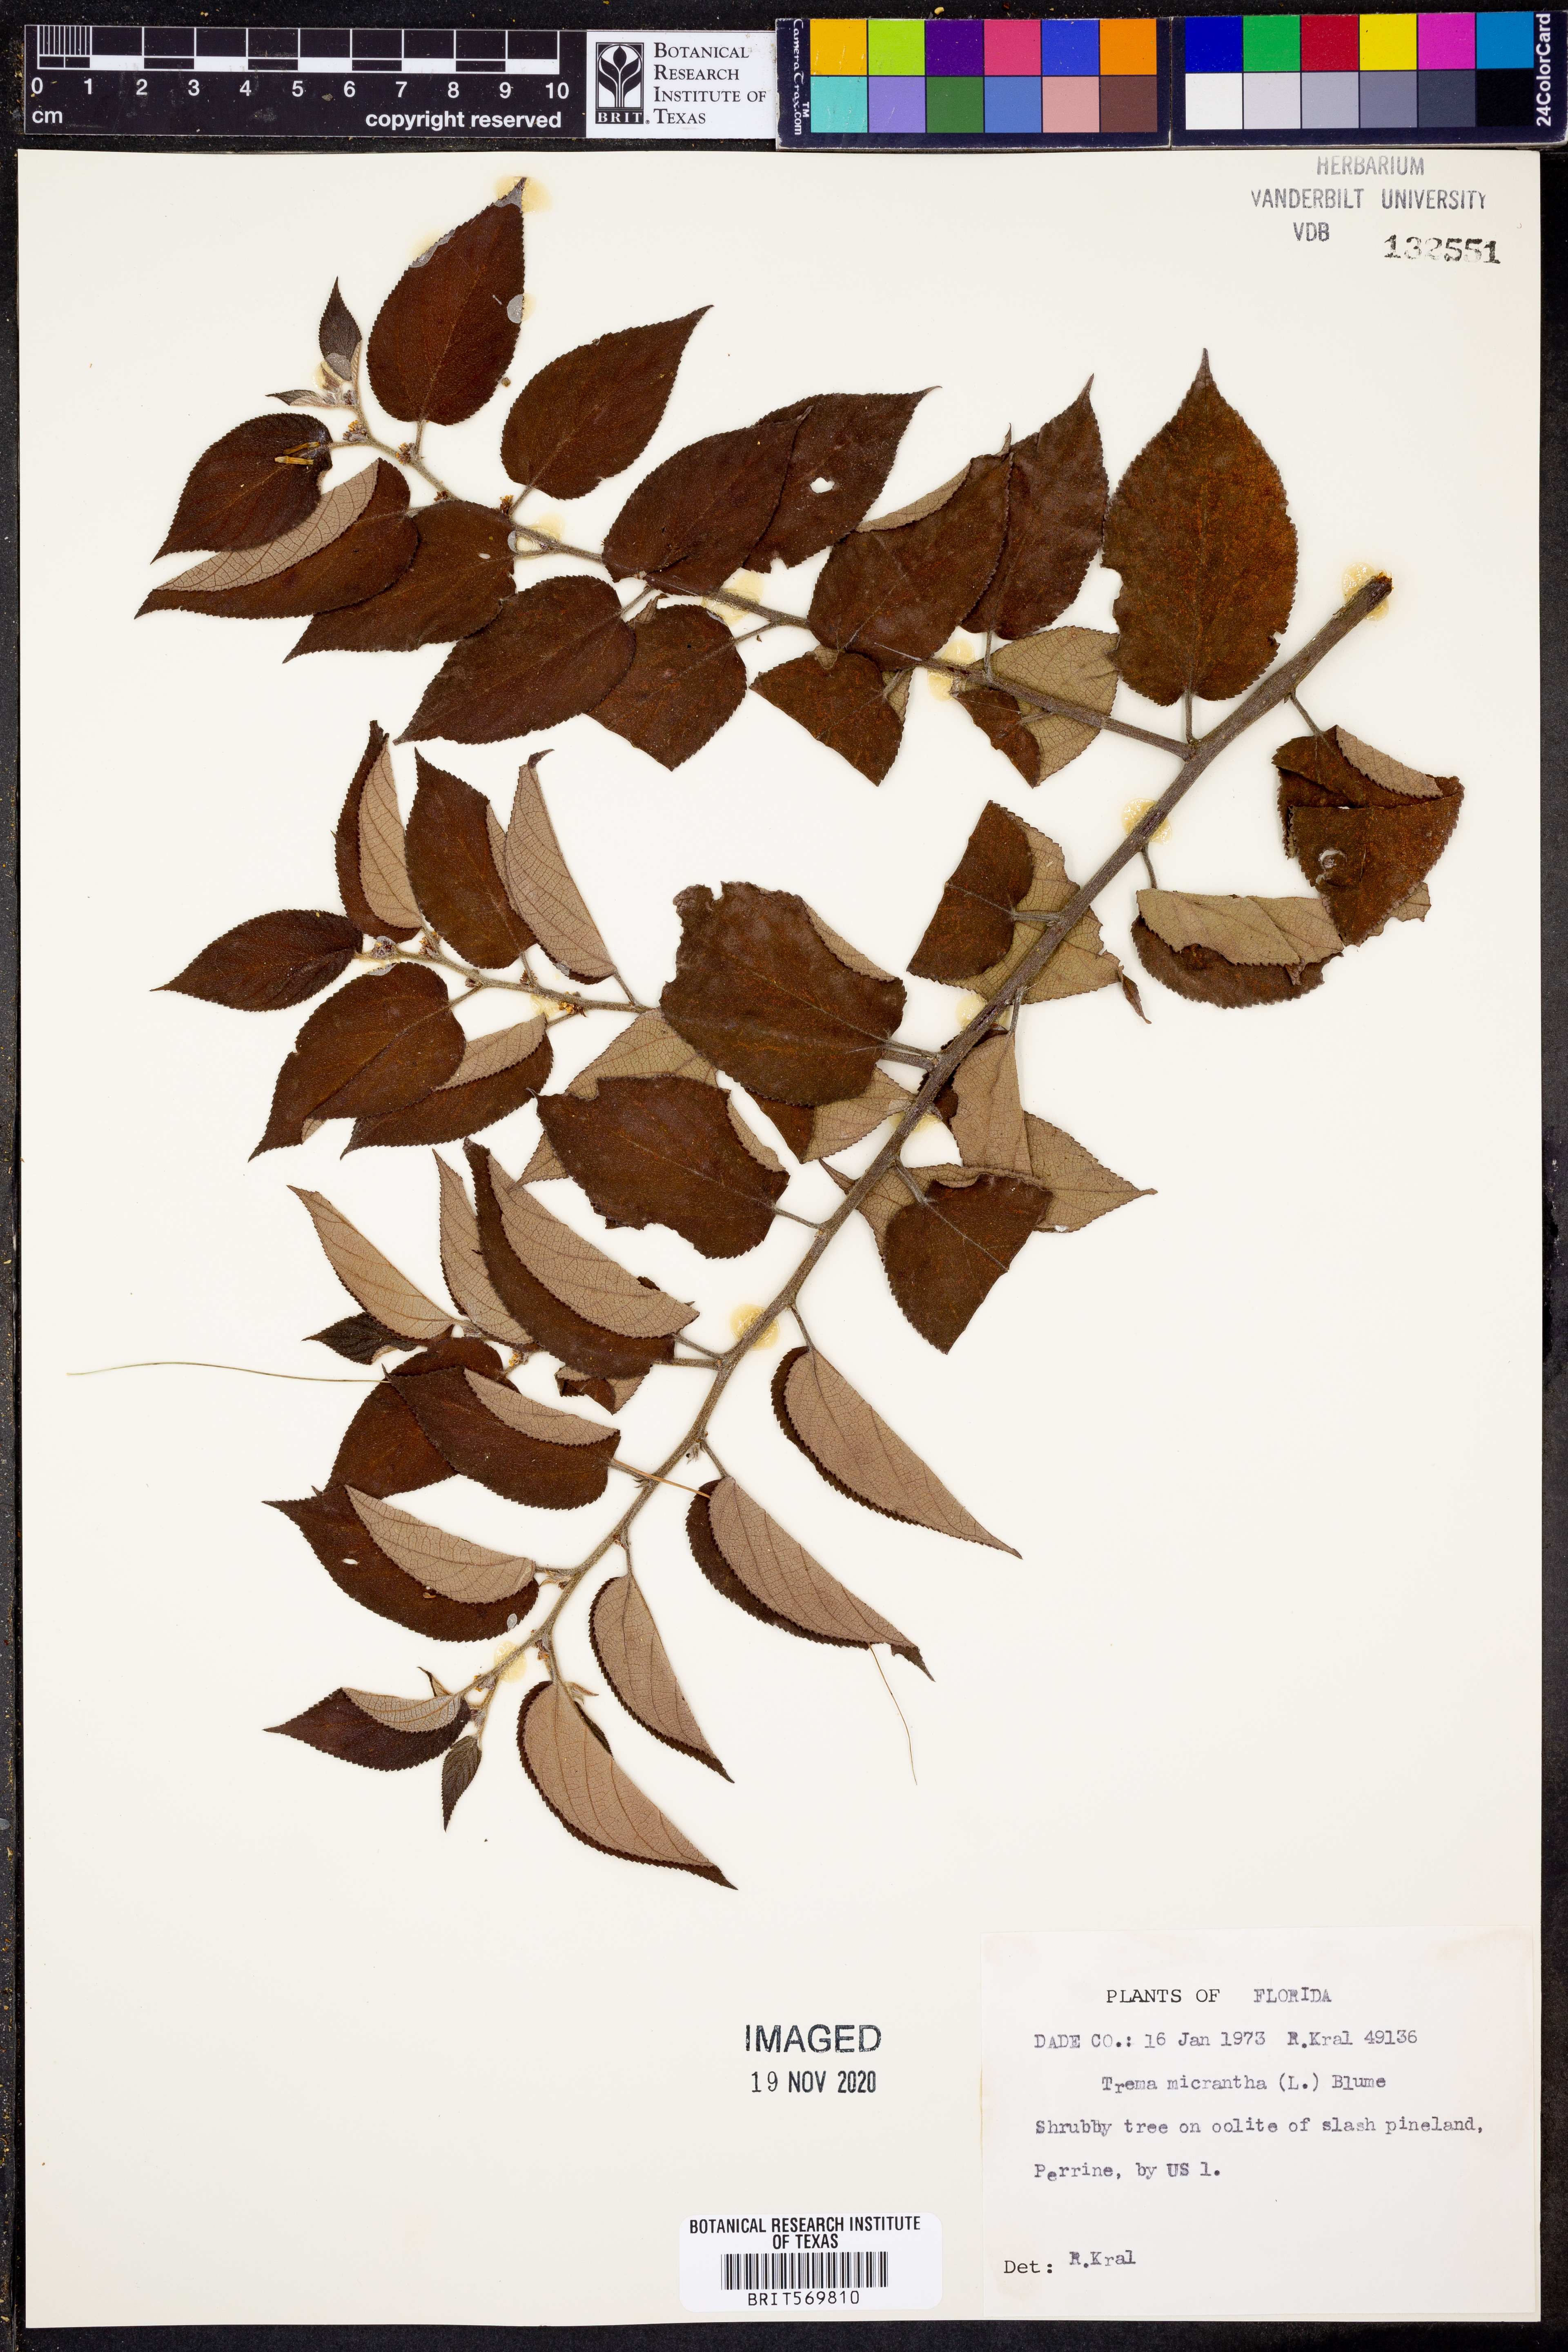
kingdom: Plantae
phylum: Tracheophyta
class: Magnoliopsida
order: Rosales
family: Cannabaceae
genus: Trema
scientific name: Trema micranthum
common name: Jamaican nettletree
